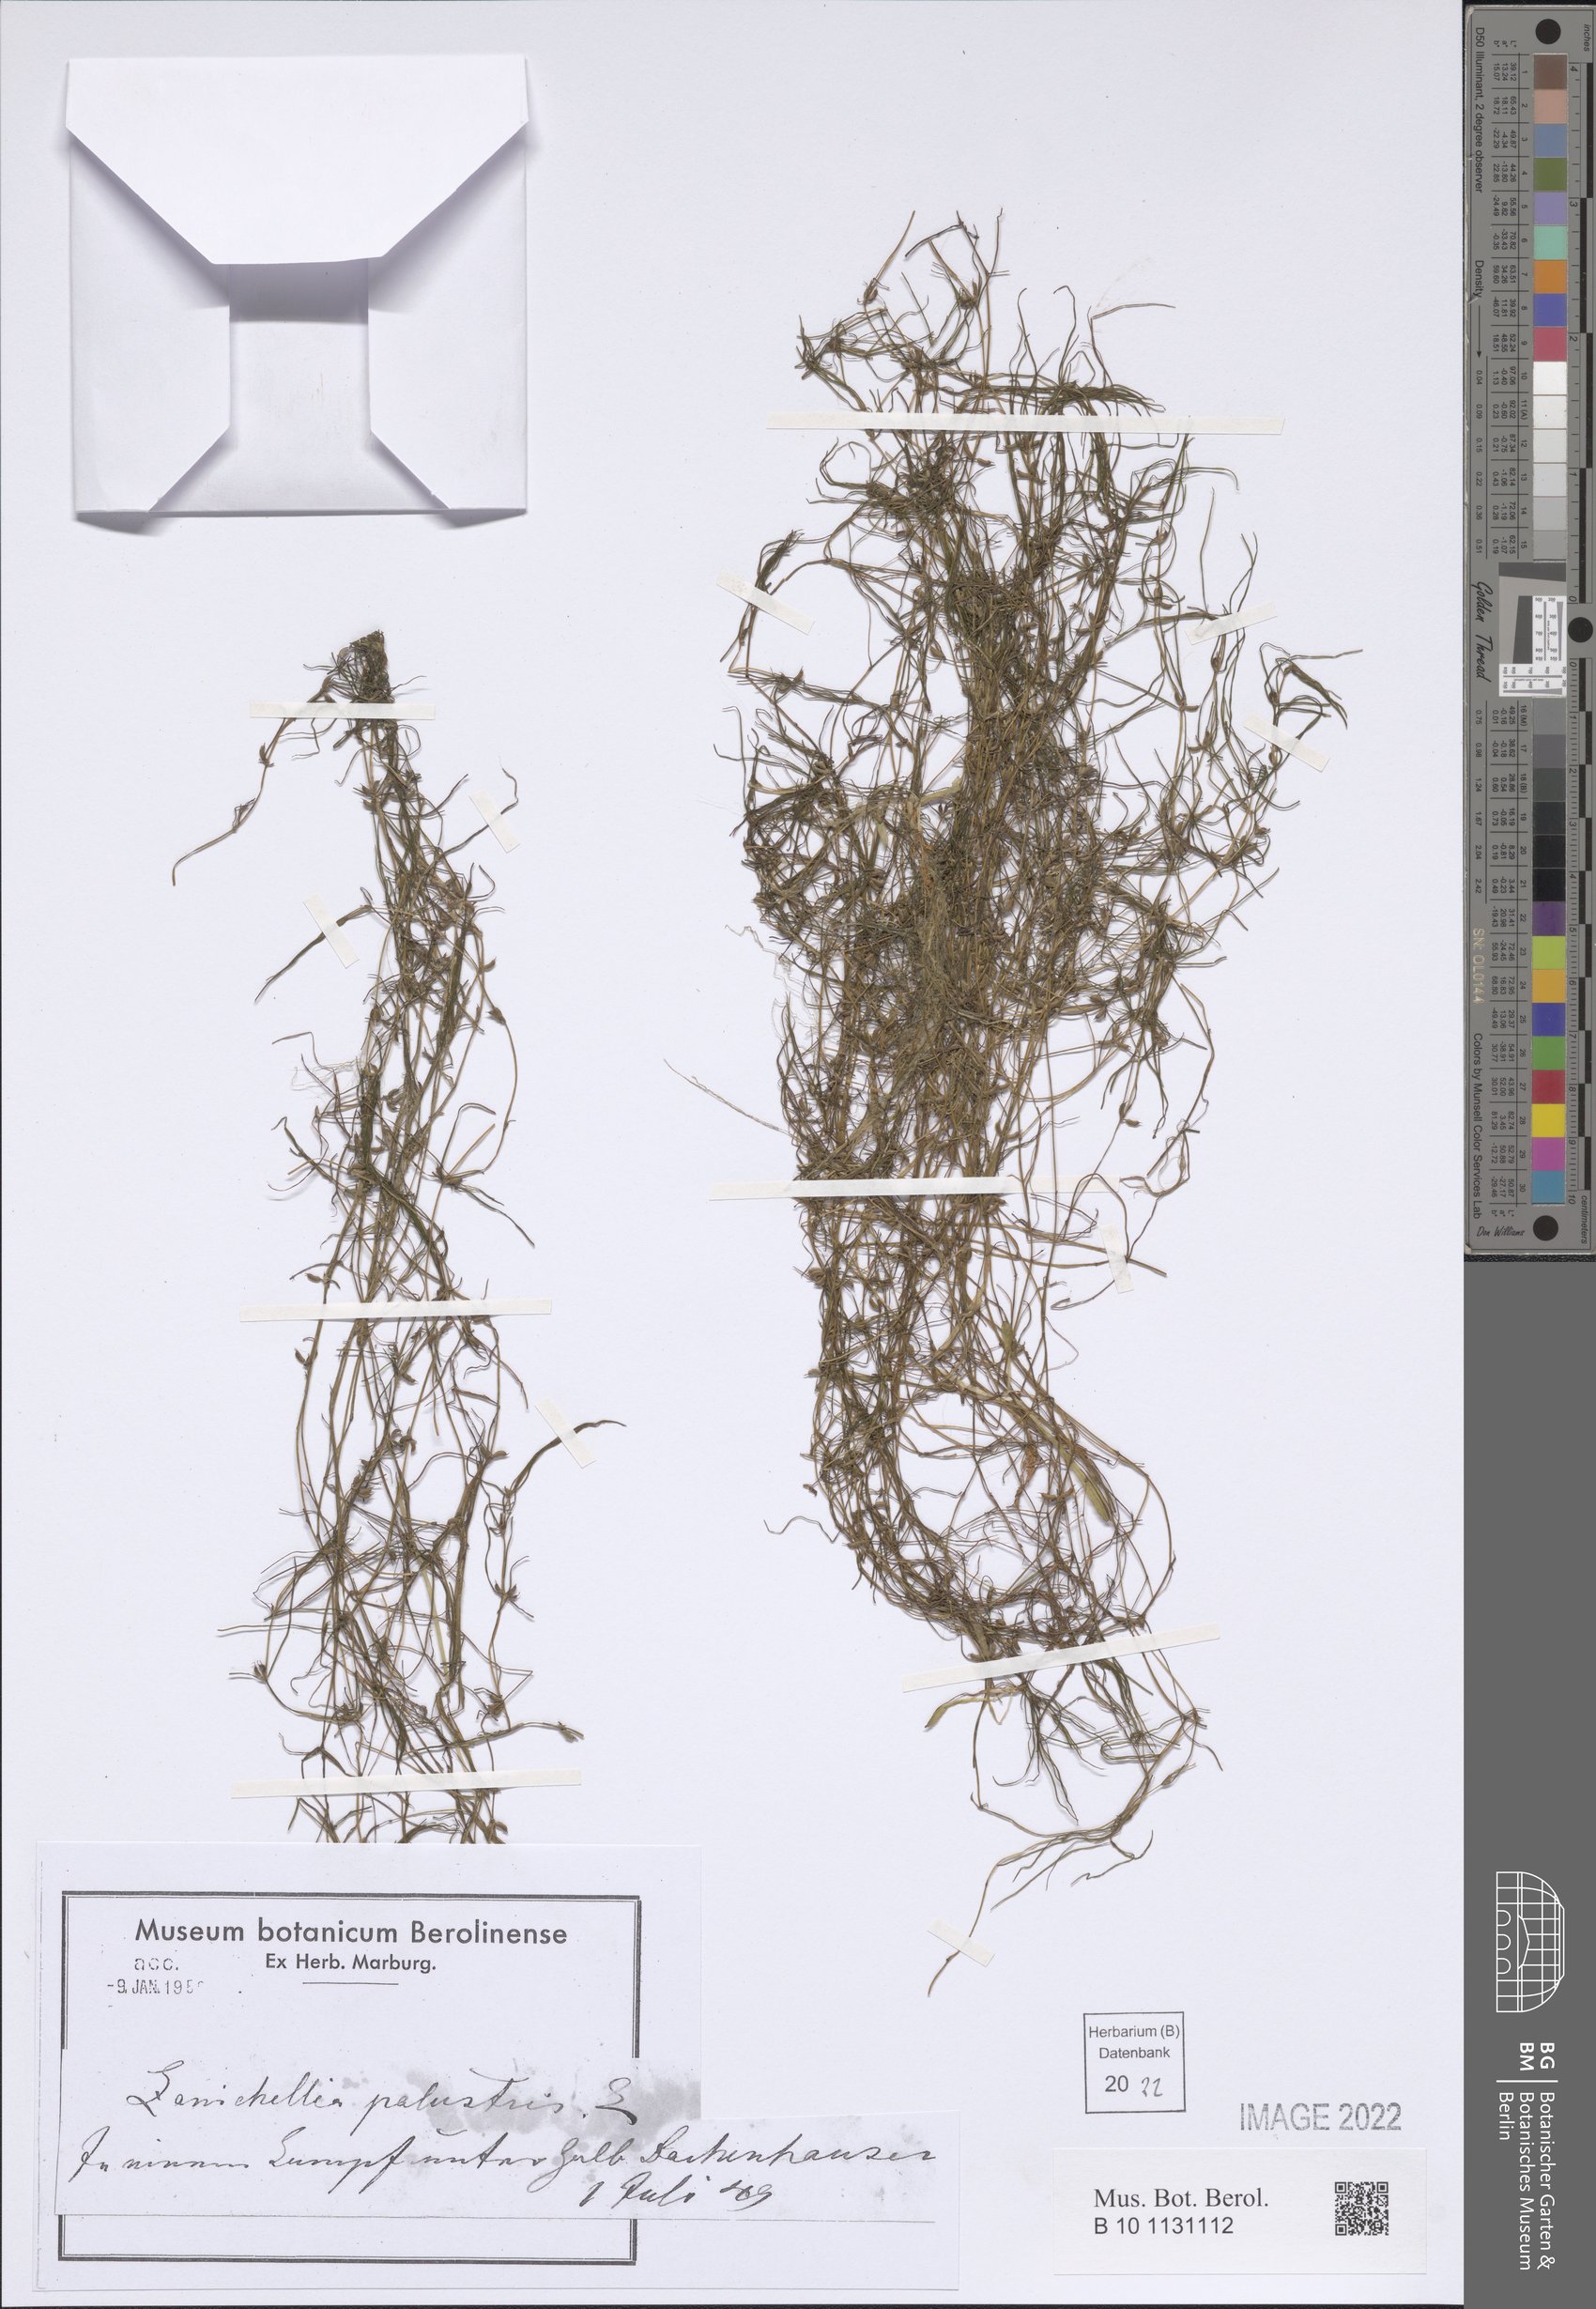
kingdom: Plantae
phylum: Tracheophyta
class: Liliopsida
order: Alismatales
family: Potamogetonaceae
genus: Zannichellia
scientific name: Zannichellia palustris
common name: Horned pondweed
